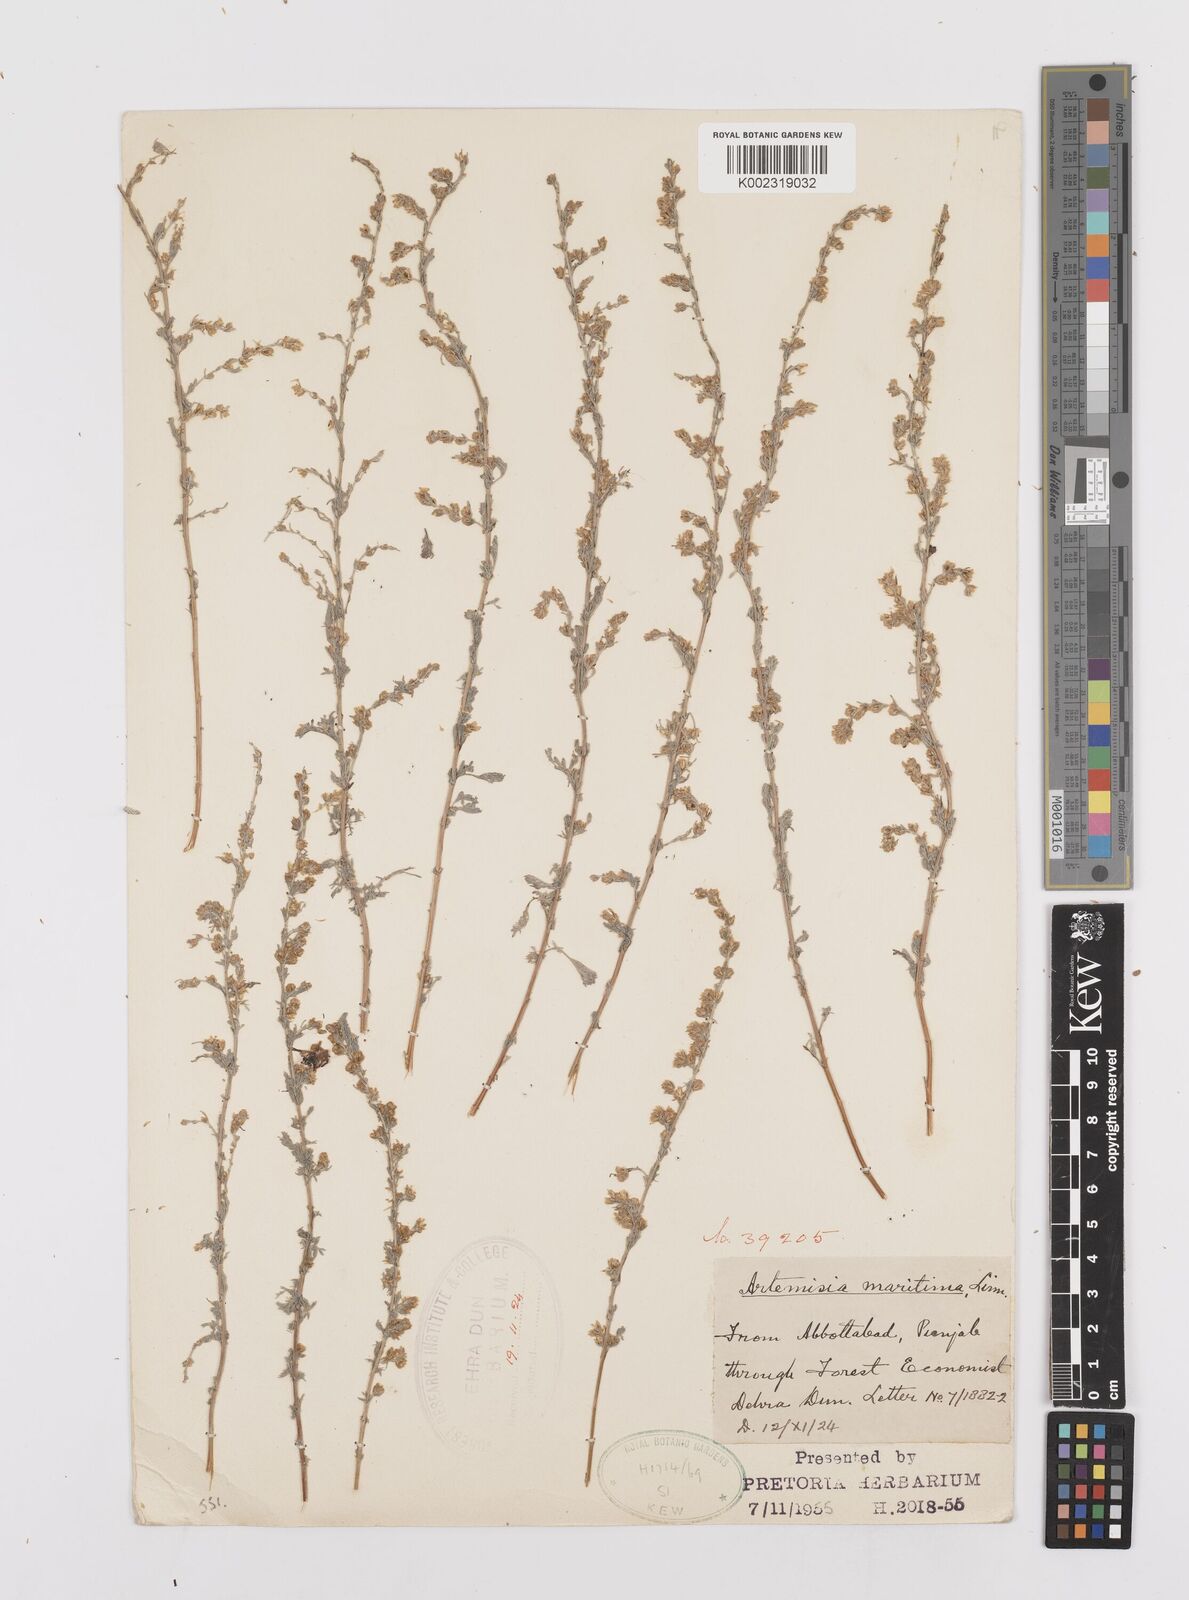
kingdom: Plantae
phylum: Tracheophyta
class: Magnoliopsida
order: Asterales
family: Asteraceae
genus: Artemisia
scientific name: Artemisia brevifolia
